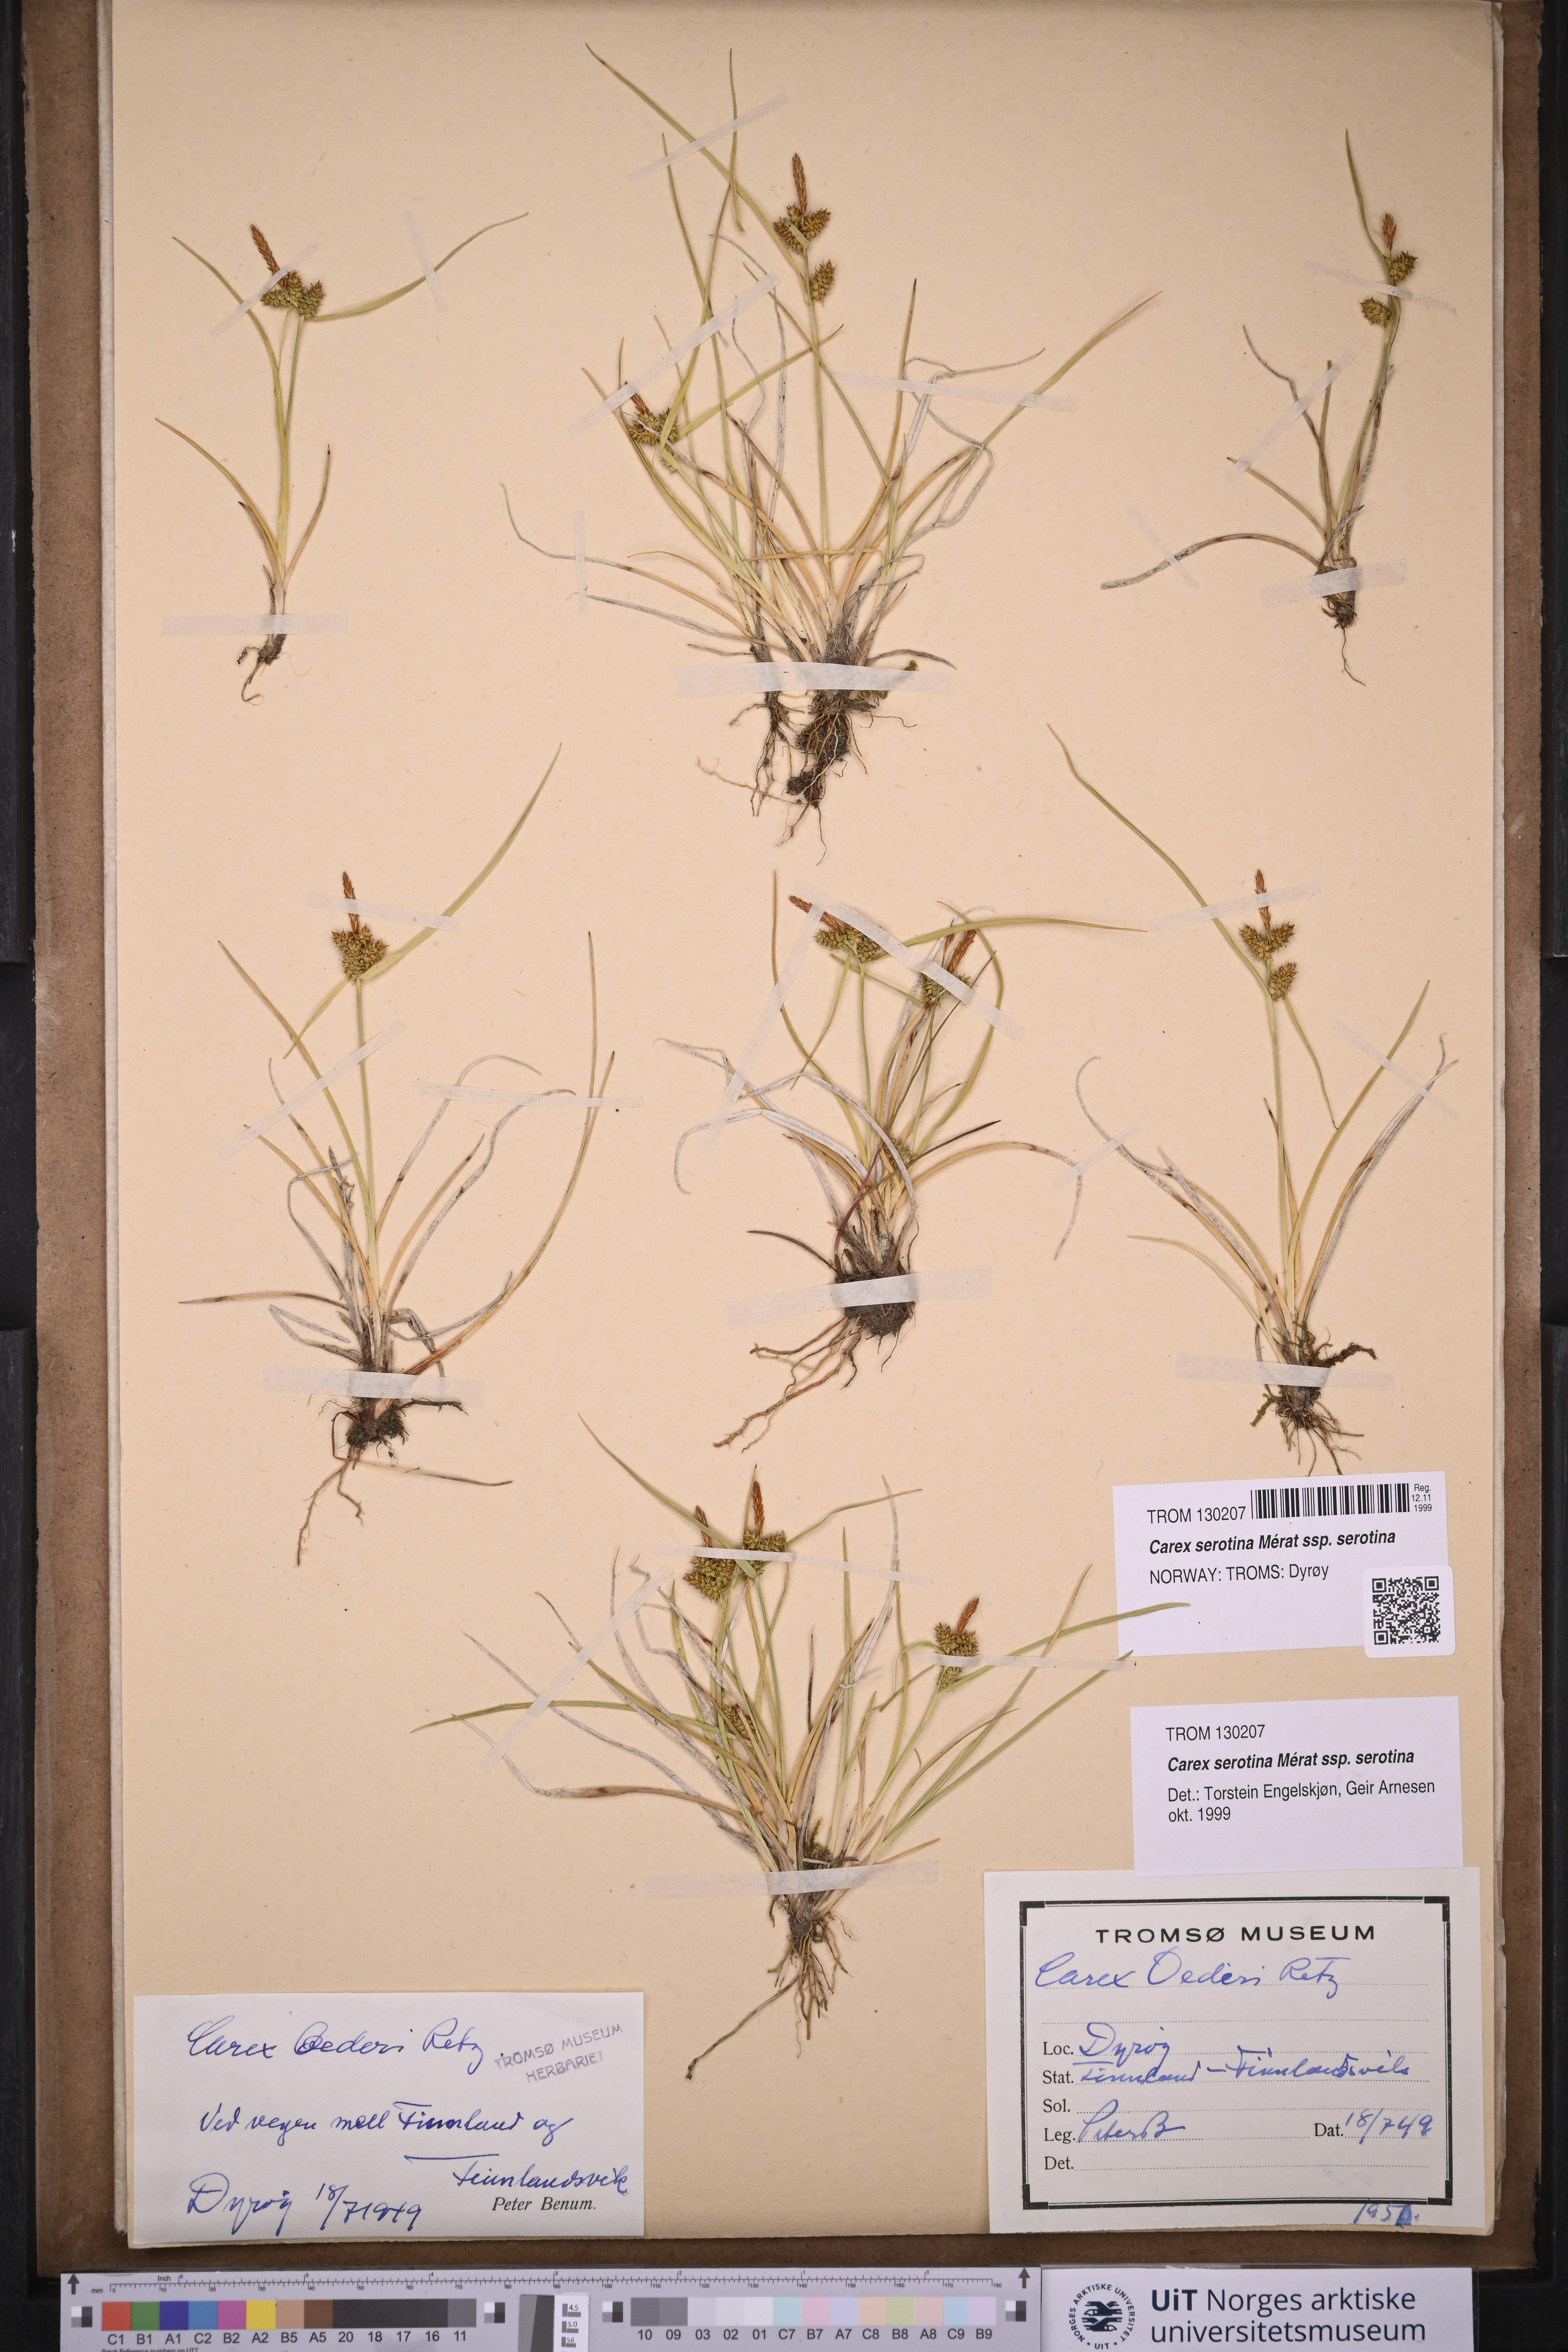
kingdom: Plantae
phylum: Tracheophyta
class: Liliopsida
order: Poales
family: Cyperaceae
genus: Carex
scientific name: Carex oederi
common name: Common & small-fruited yellow-sedge
